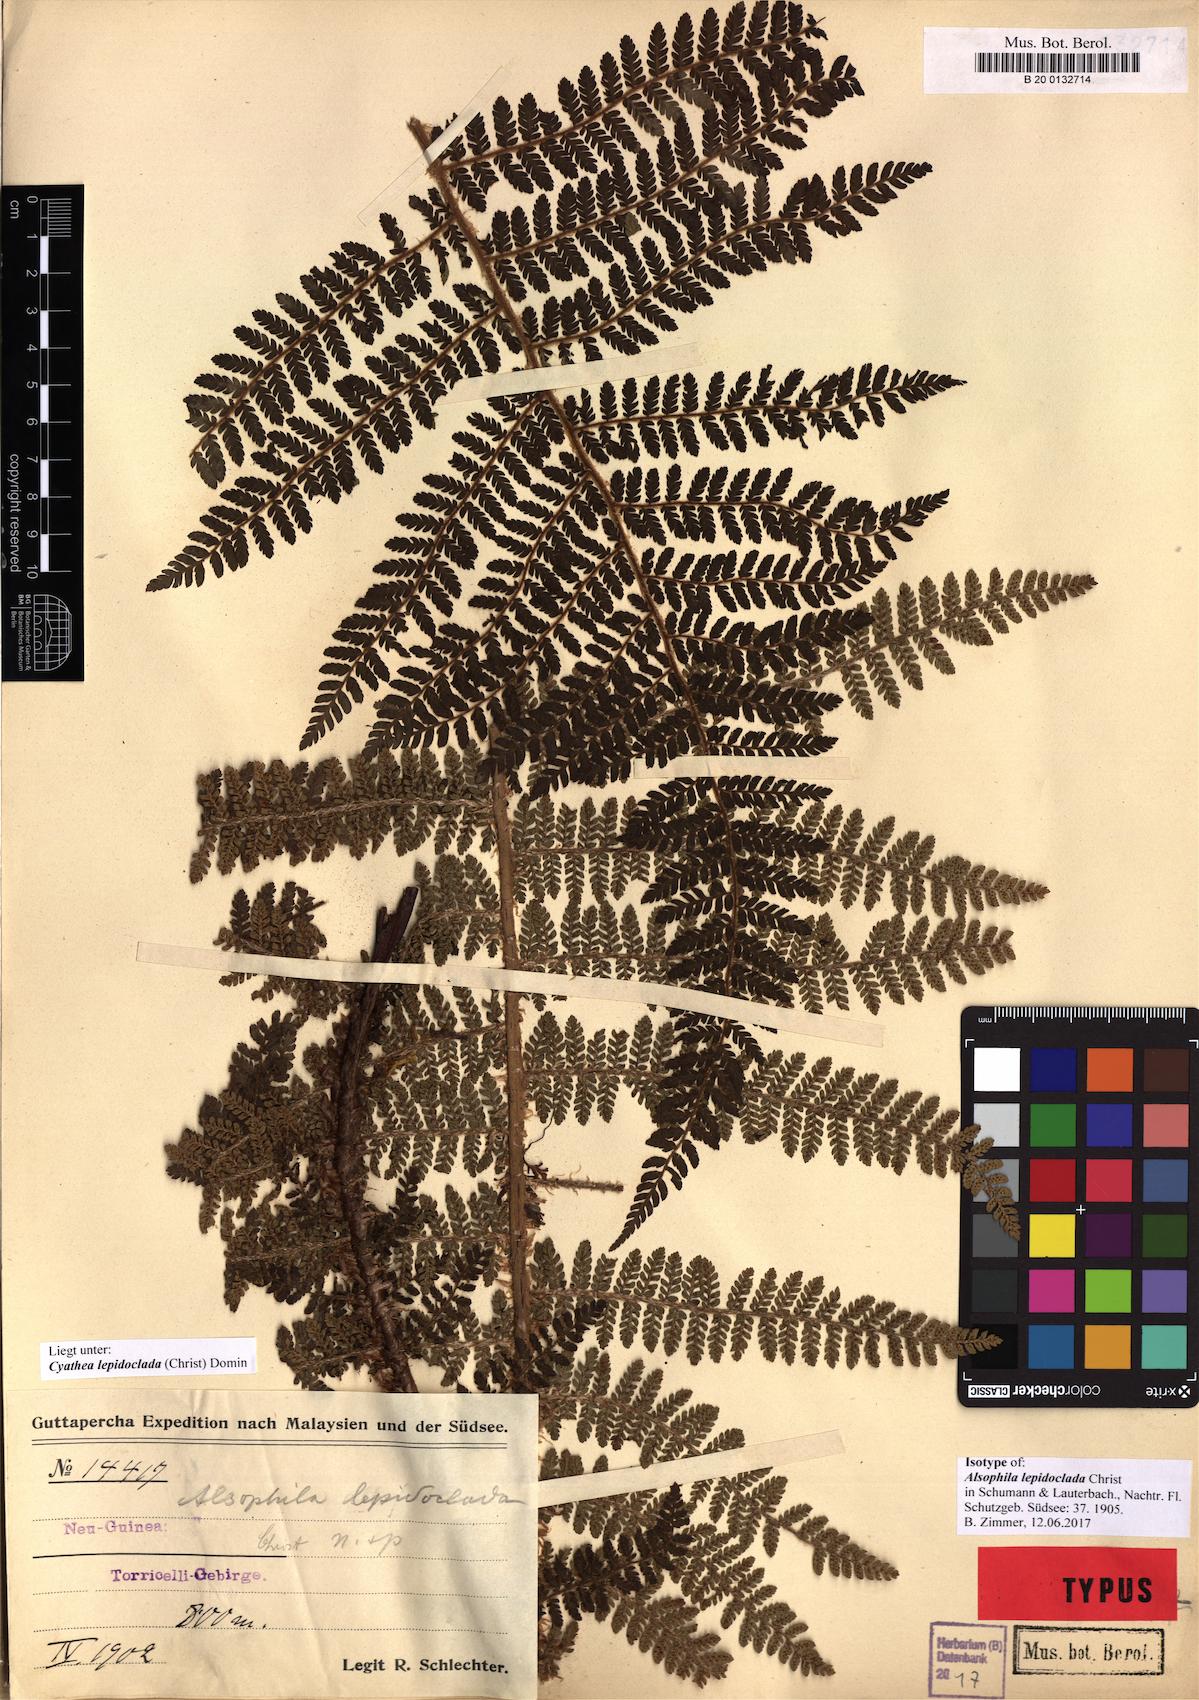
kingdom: Plantae
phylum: Tracheophyta
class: Polypodiopsida
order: Cyatheales
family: Cyatheaceae
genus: Alsophila
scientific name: Alsophila lepidoclada
